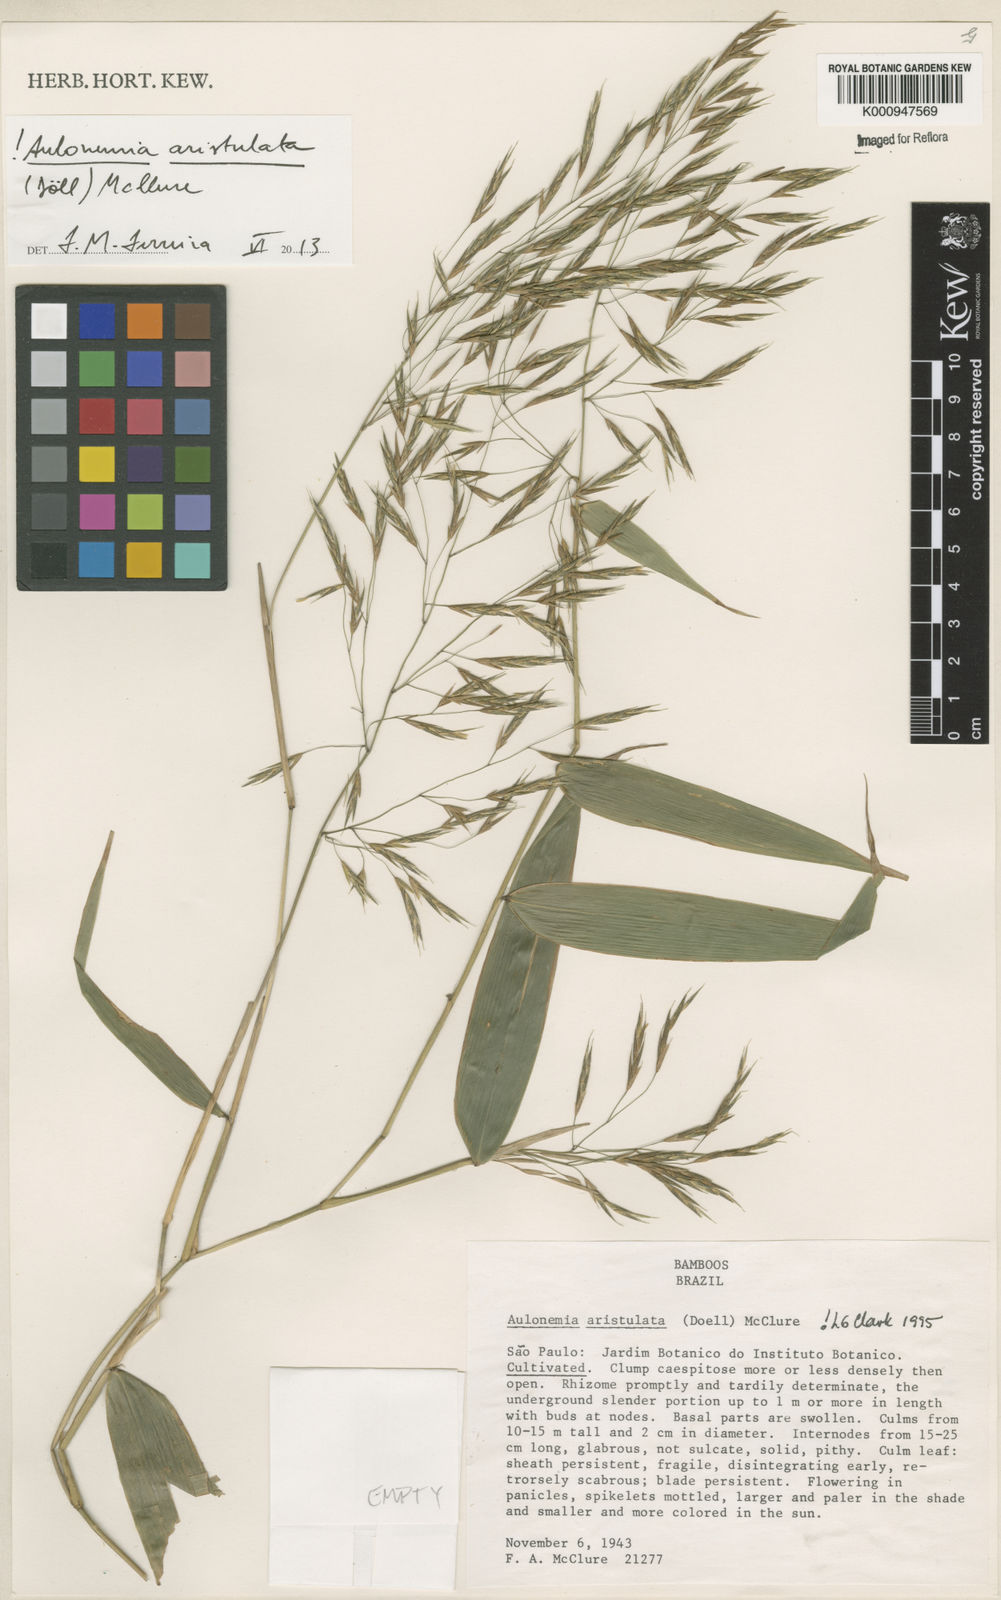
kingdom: Plantae
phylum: Tracheophyta
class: Liliopsida
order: Poales
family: Poaceae
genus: Aulonemia
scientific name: Aulonemia
